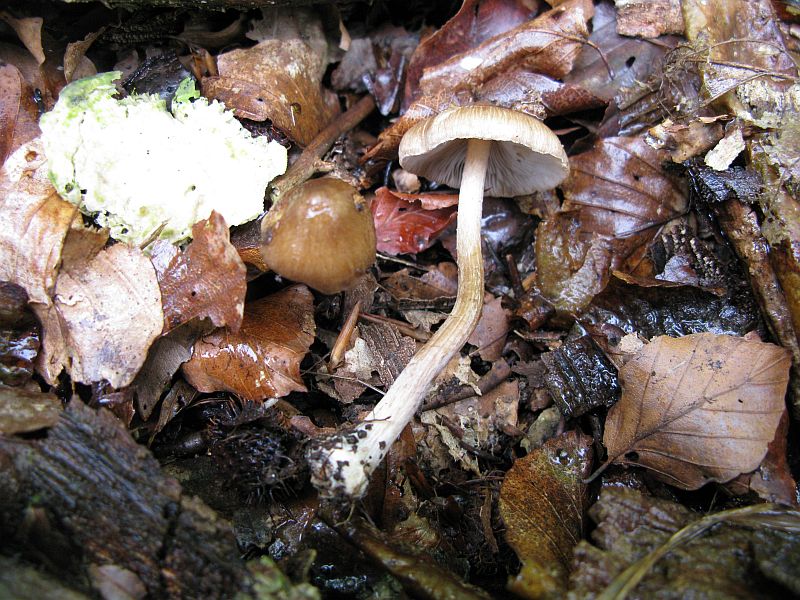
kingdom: Fungi
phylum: Basidiomycota
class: Agaricomycetes
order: Agaricales
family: Inocybaceae
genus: Inocybe
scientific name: Inocybe
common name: trævlhat
